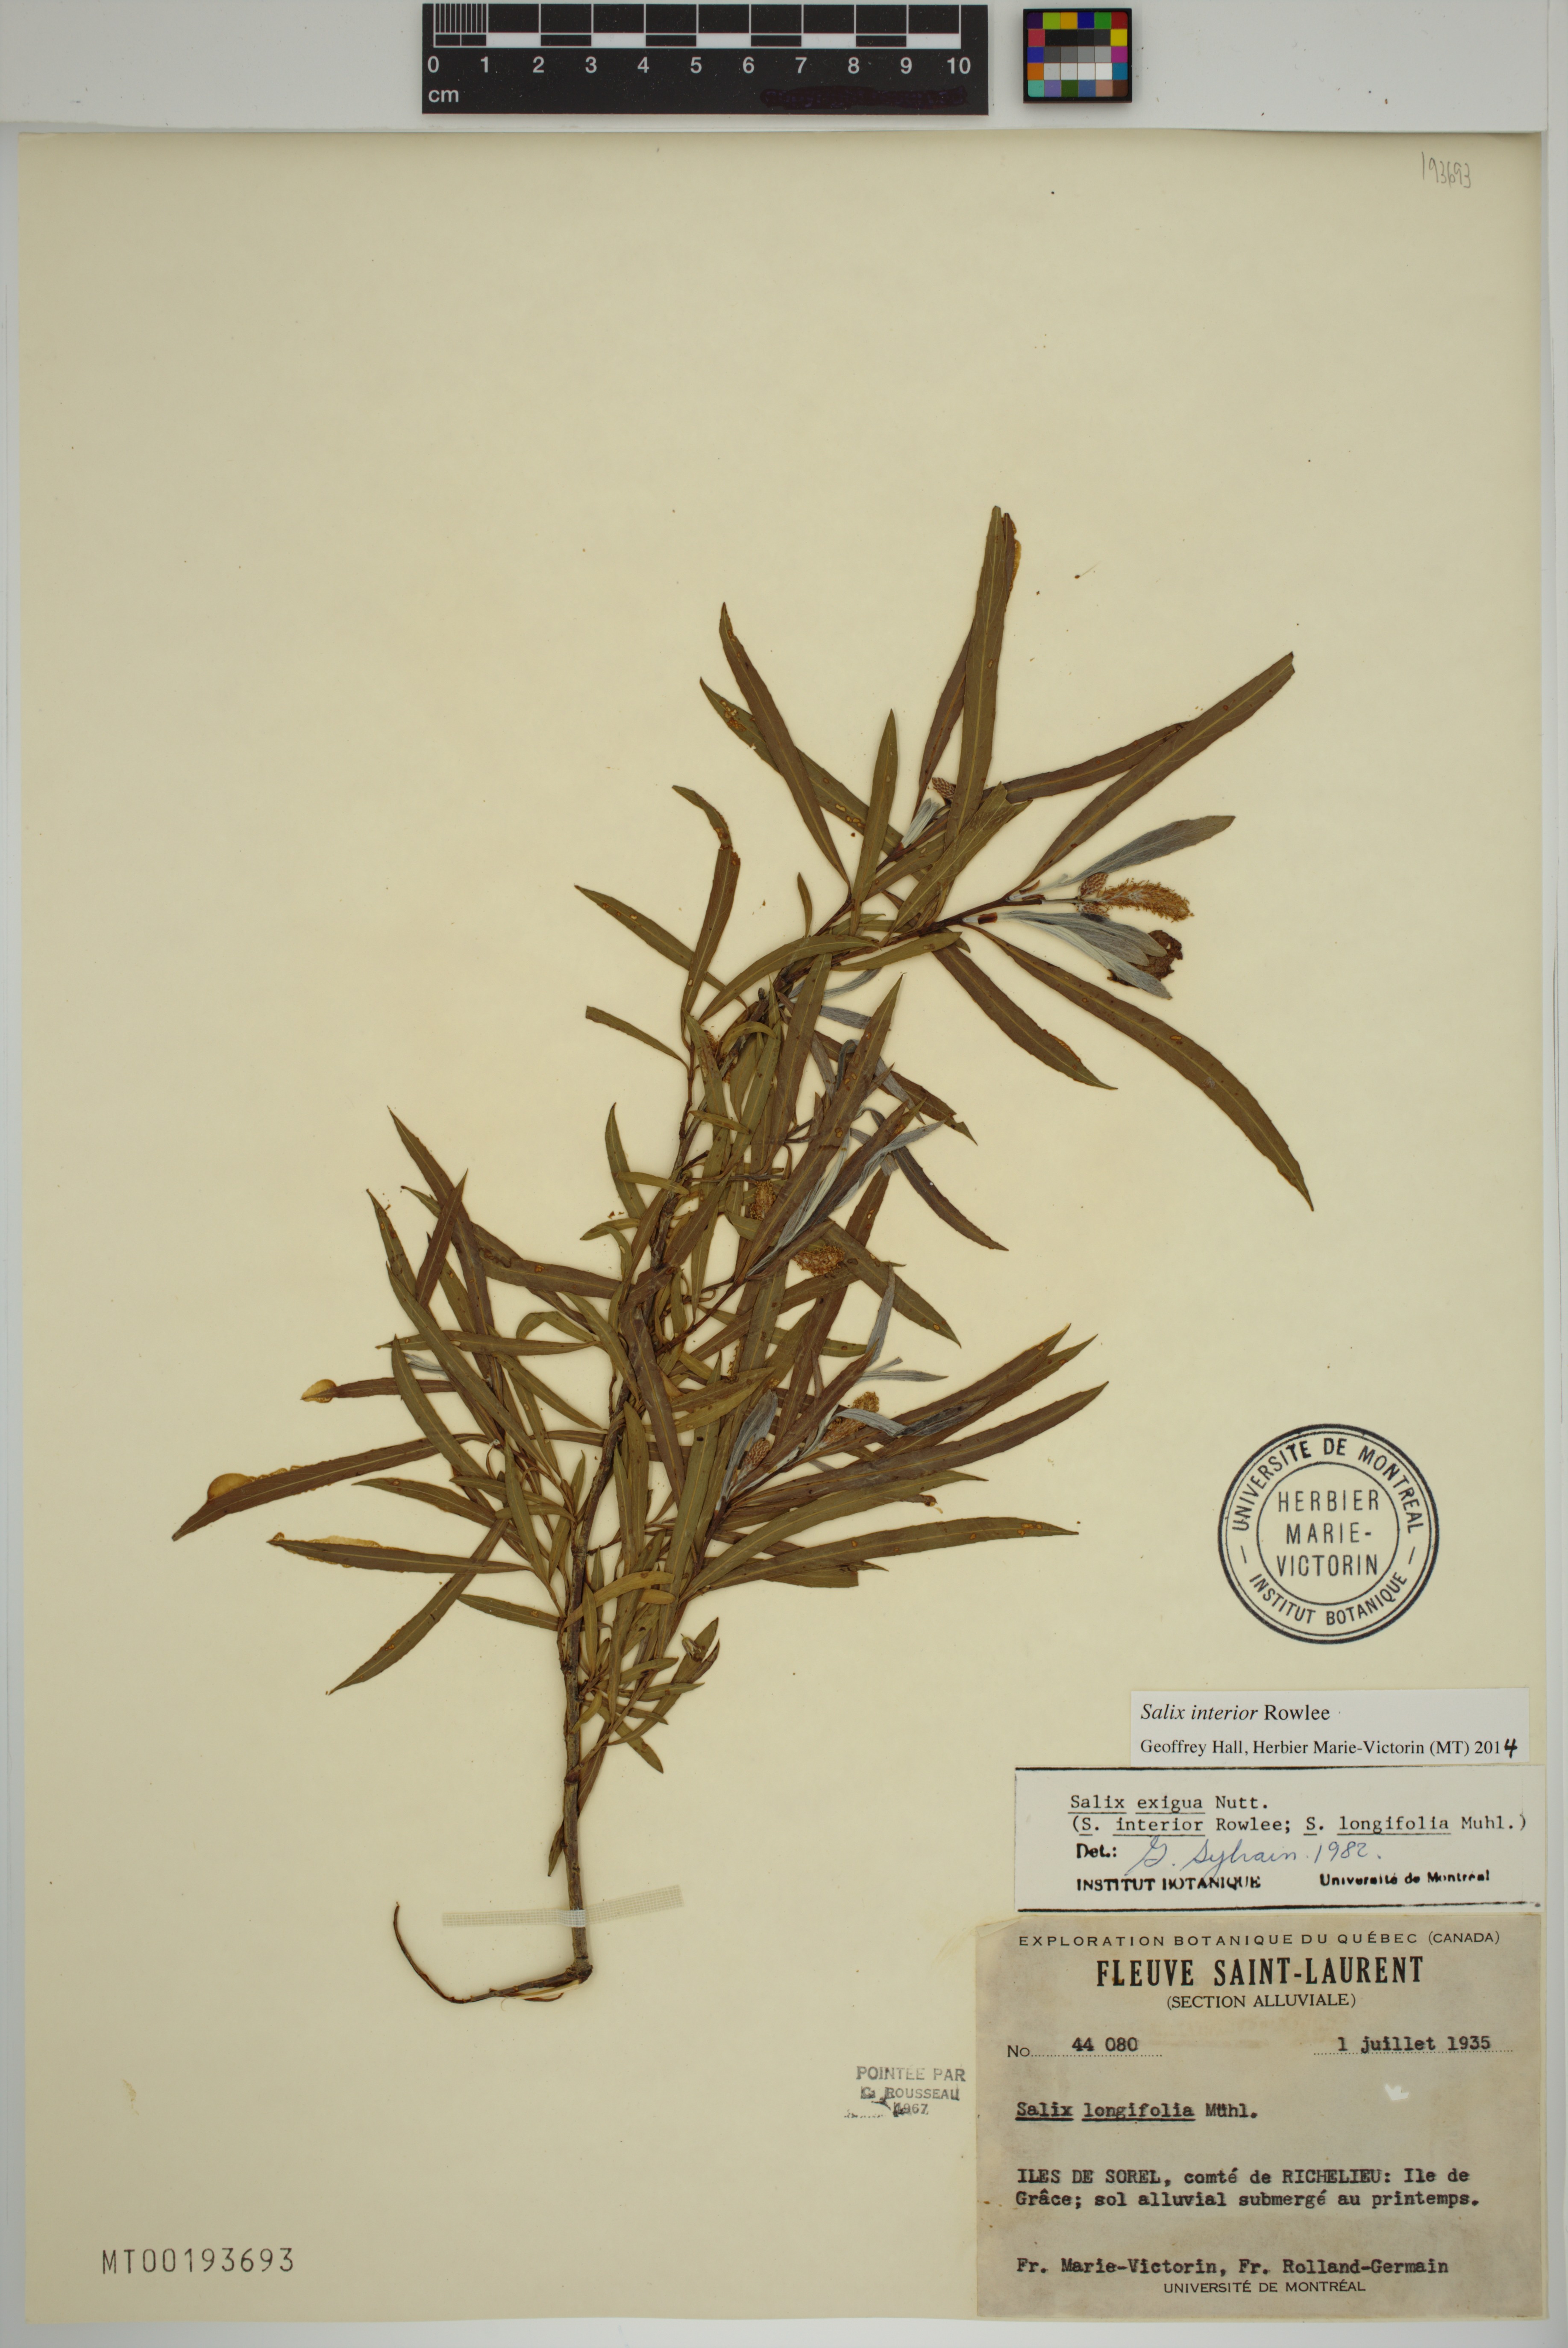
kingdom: Plantae
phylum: Tracheophyta
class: Magnoliopsida
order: Malpighiales
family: Salicaceae
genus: Salix
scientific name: Salix interior
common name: Sandbar willow
